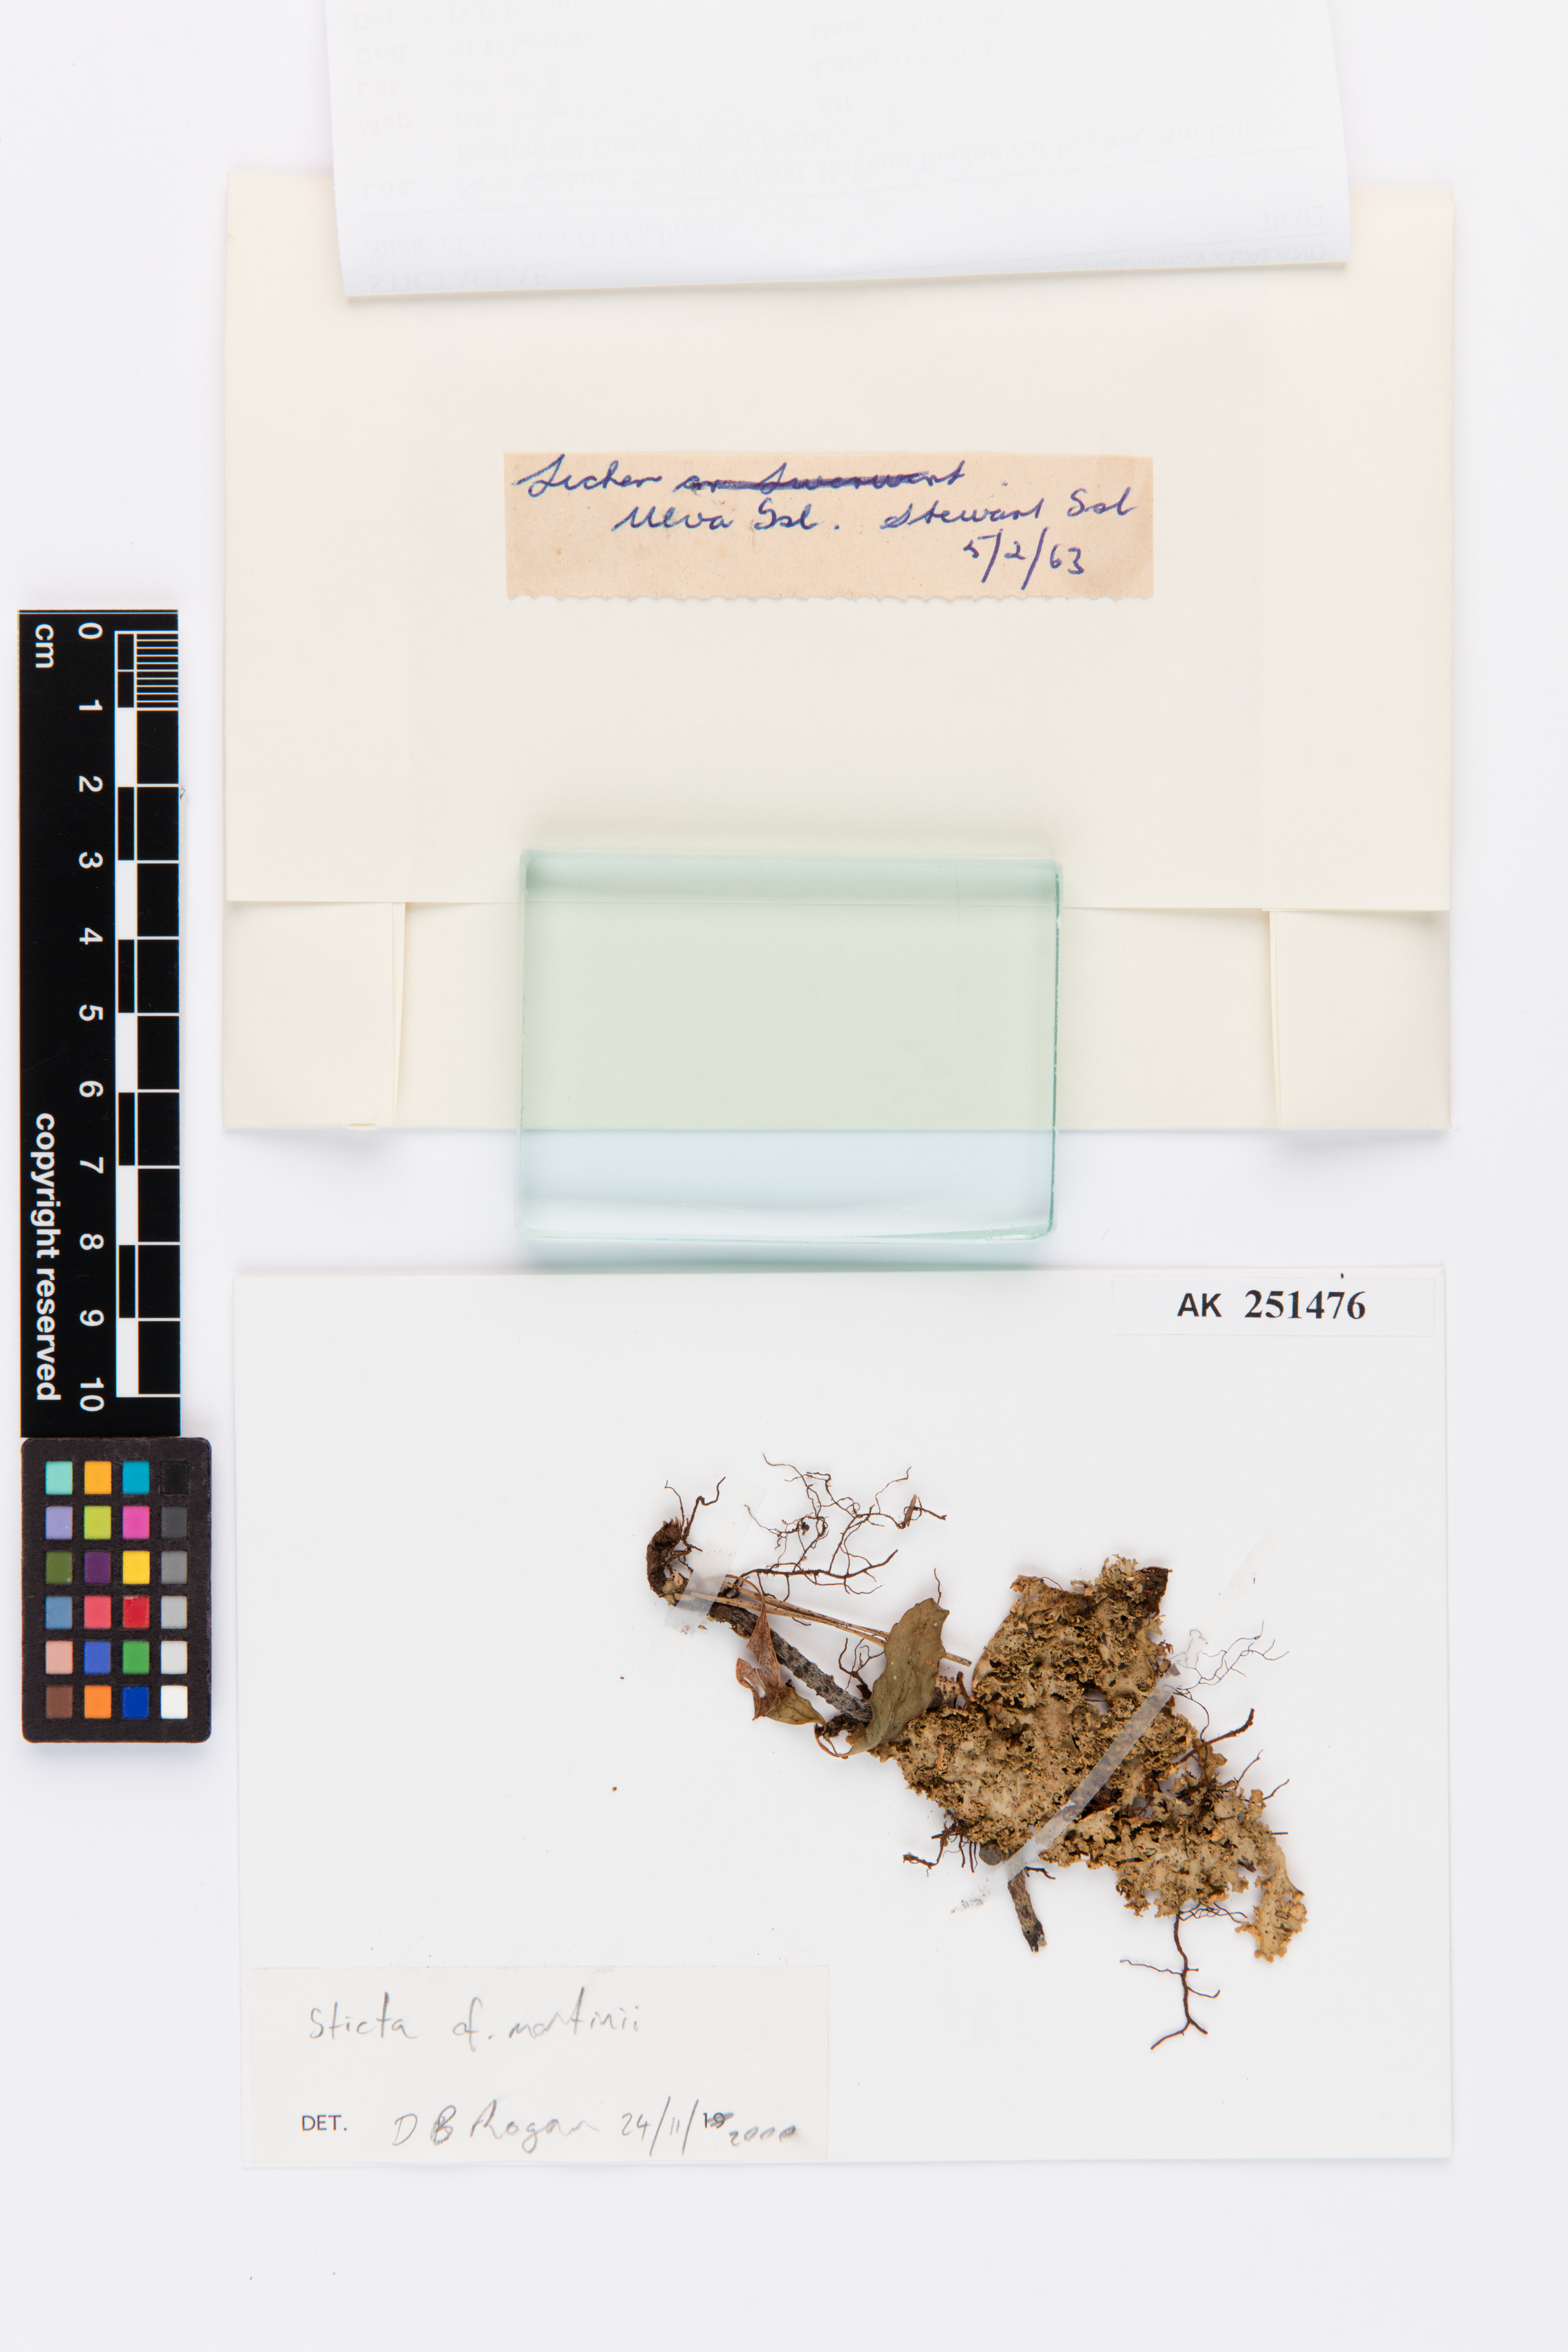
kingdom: Fungi
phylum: Ascomycota
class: Lecanoromycetes
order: Peltigerales
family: Lobariaceae
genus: Sticta
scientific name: Sticta babingtonii
